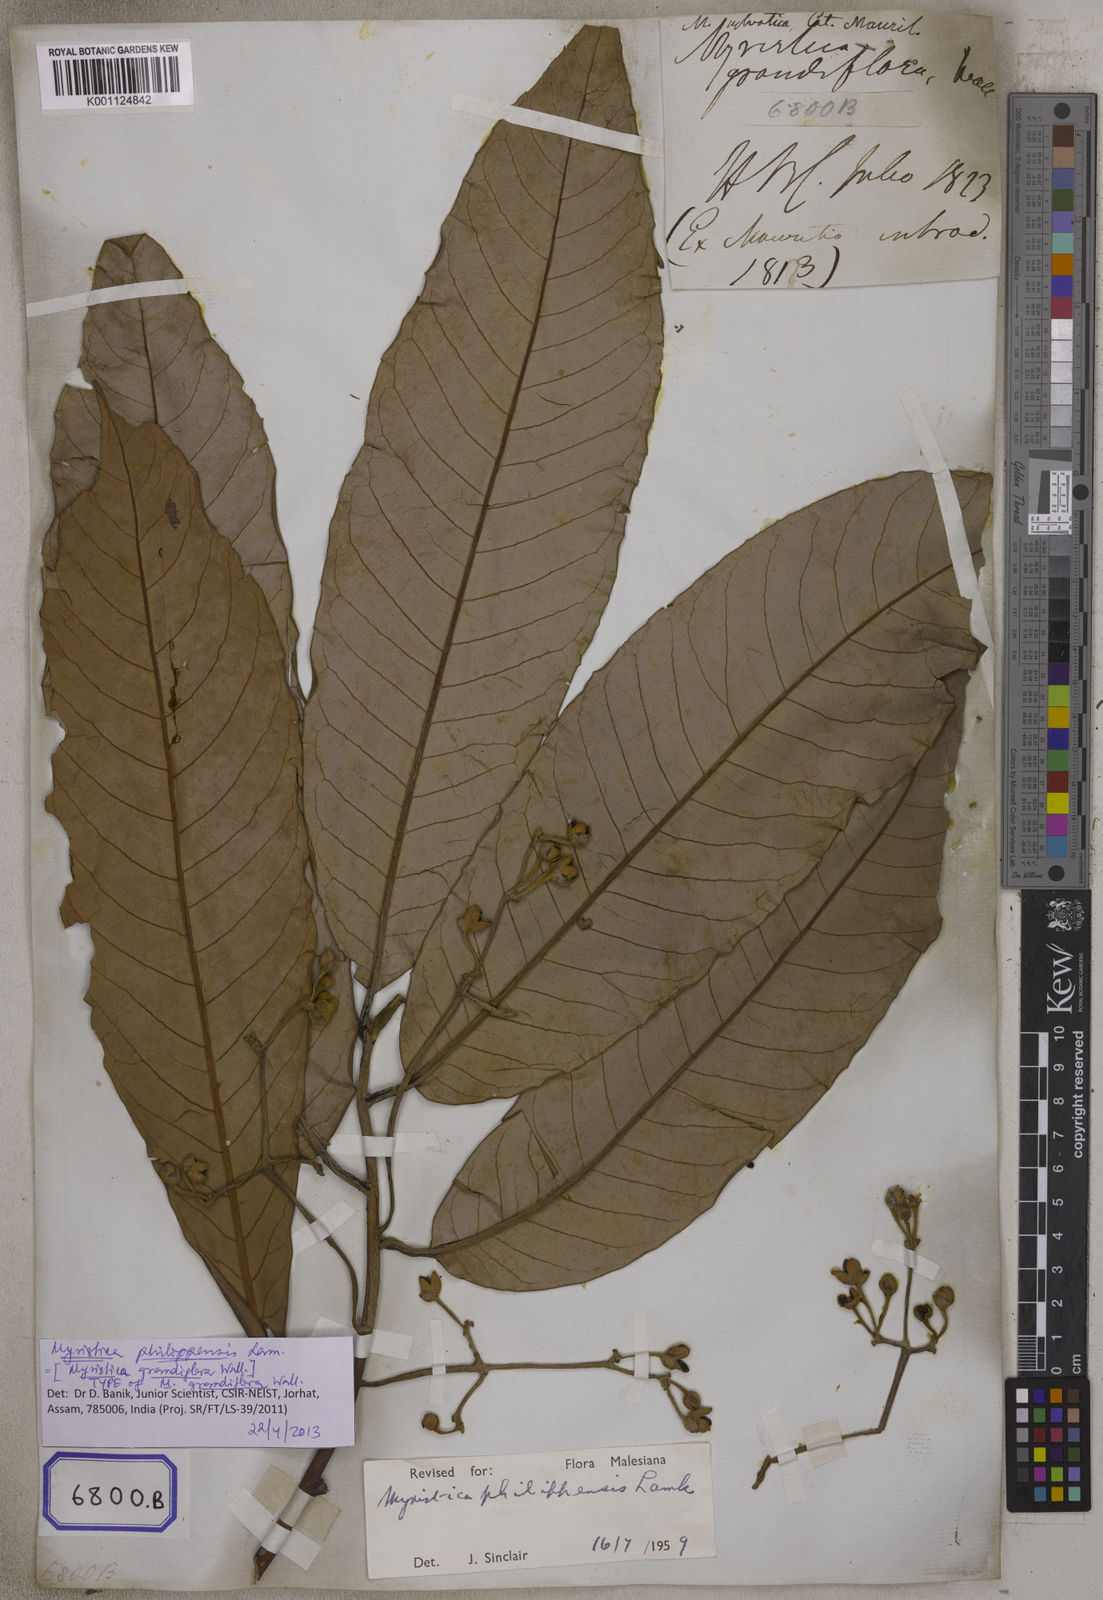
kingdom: Plantae
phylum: Tracheophyta
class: Magnoliopsida
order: Magnoliales
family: Myristicaceae
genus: Horsfieldia
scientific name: Horsfieldia sylvestris
